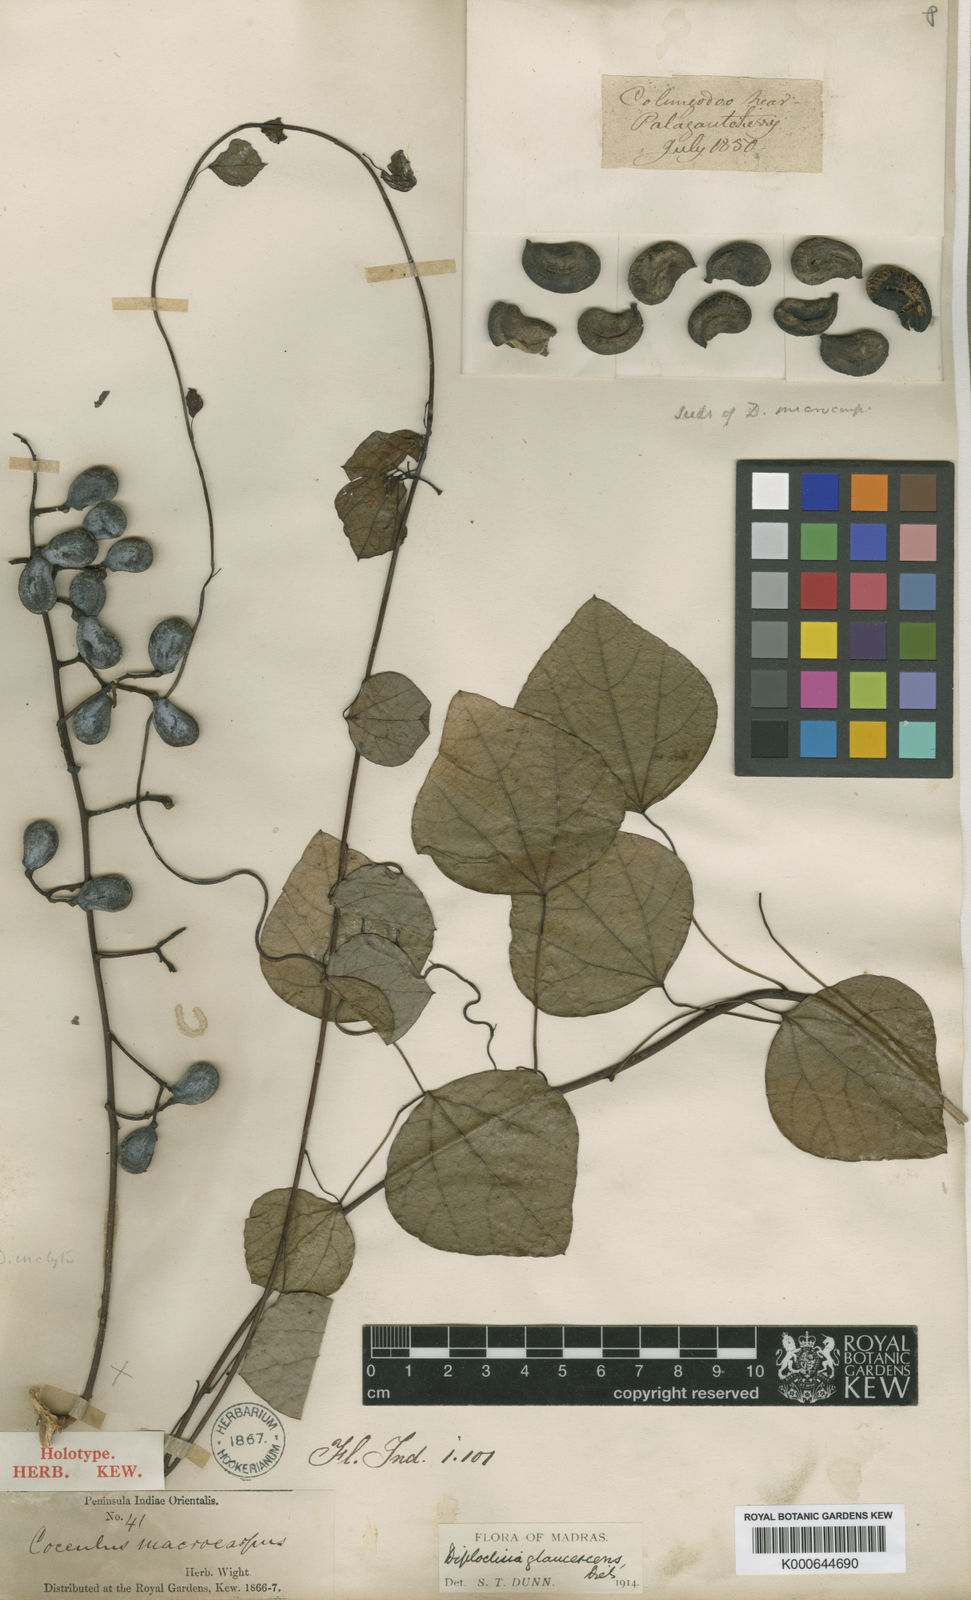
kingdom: Plantae
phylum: Tracheophyta
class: Magnoliopsida
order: Ranunculales
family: Menispermaceae
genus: Diploclisia
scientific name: Diploclisia glaucescens
